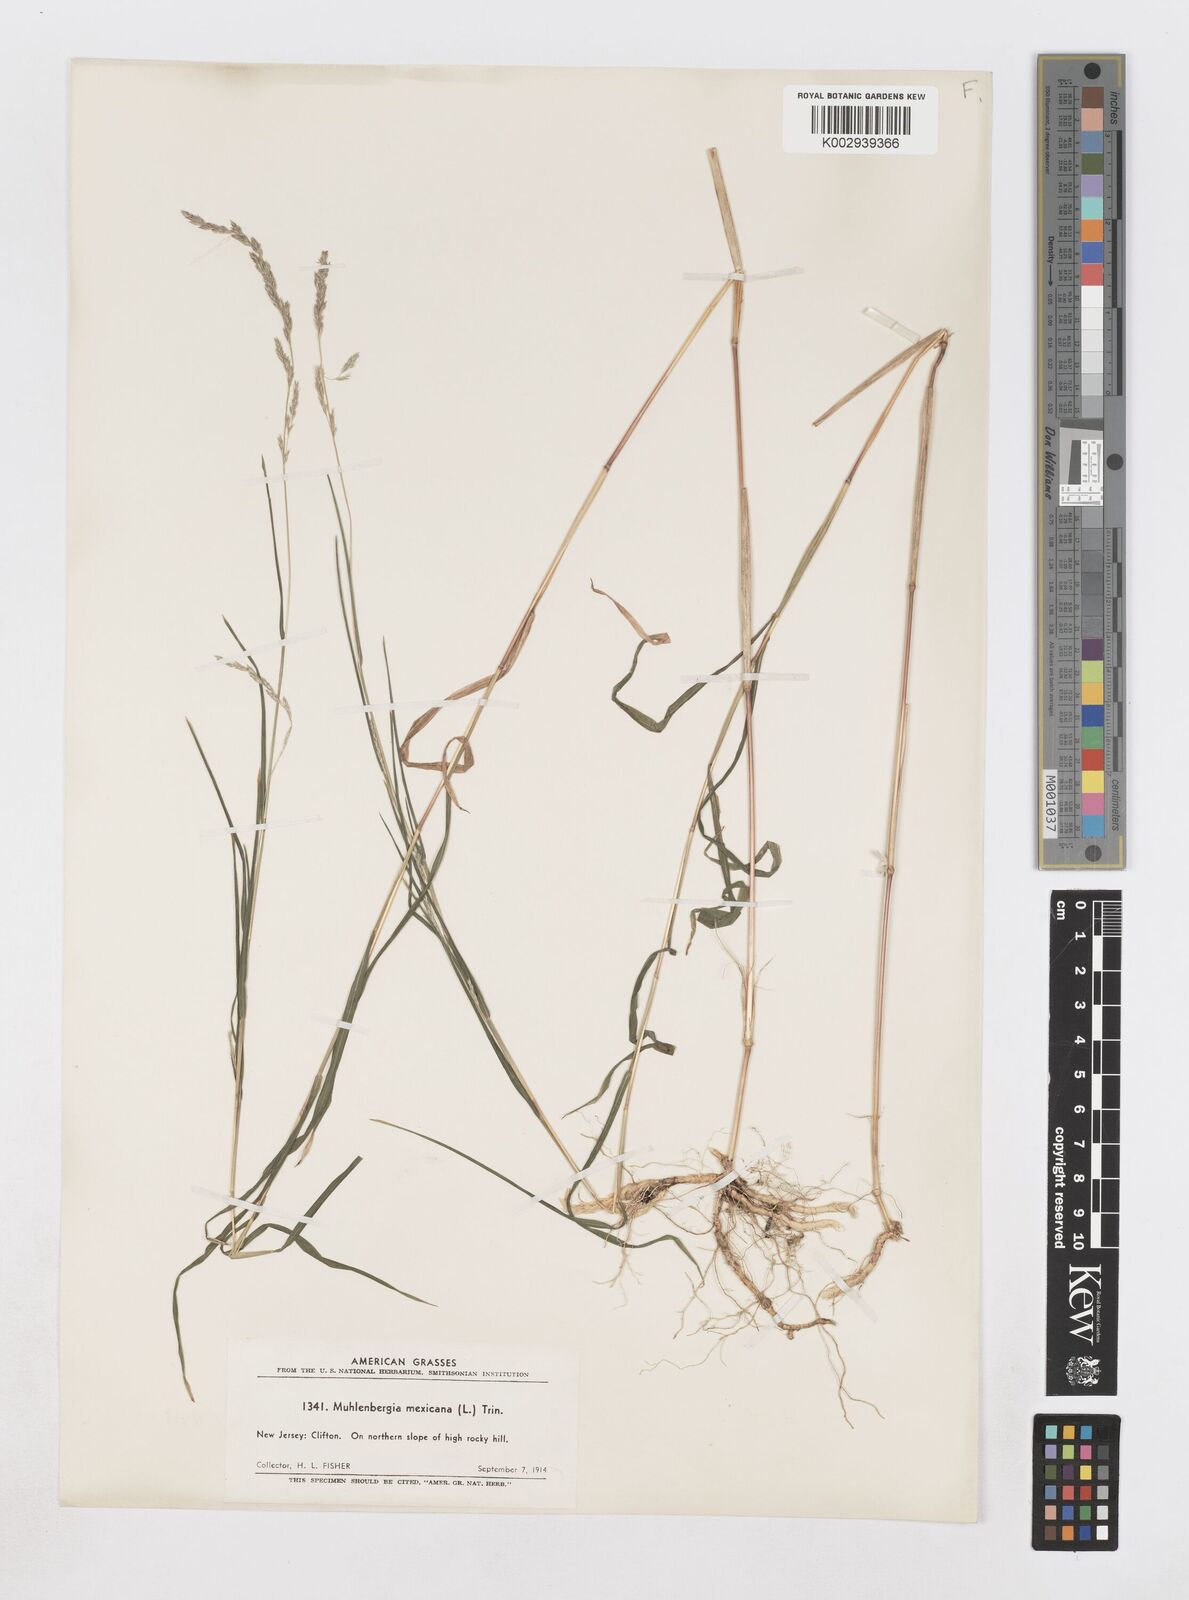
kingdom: Plantae
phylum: Tracheophyta
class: Liliopsida
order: Poales
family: Poaceae
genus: Muhlenbergia
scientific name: Muhlenbergia mexicana
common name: Mexican muhly
